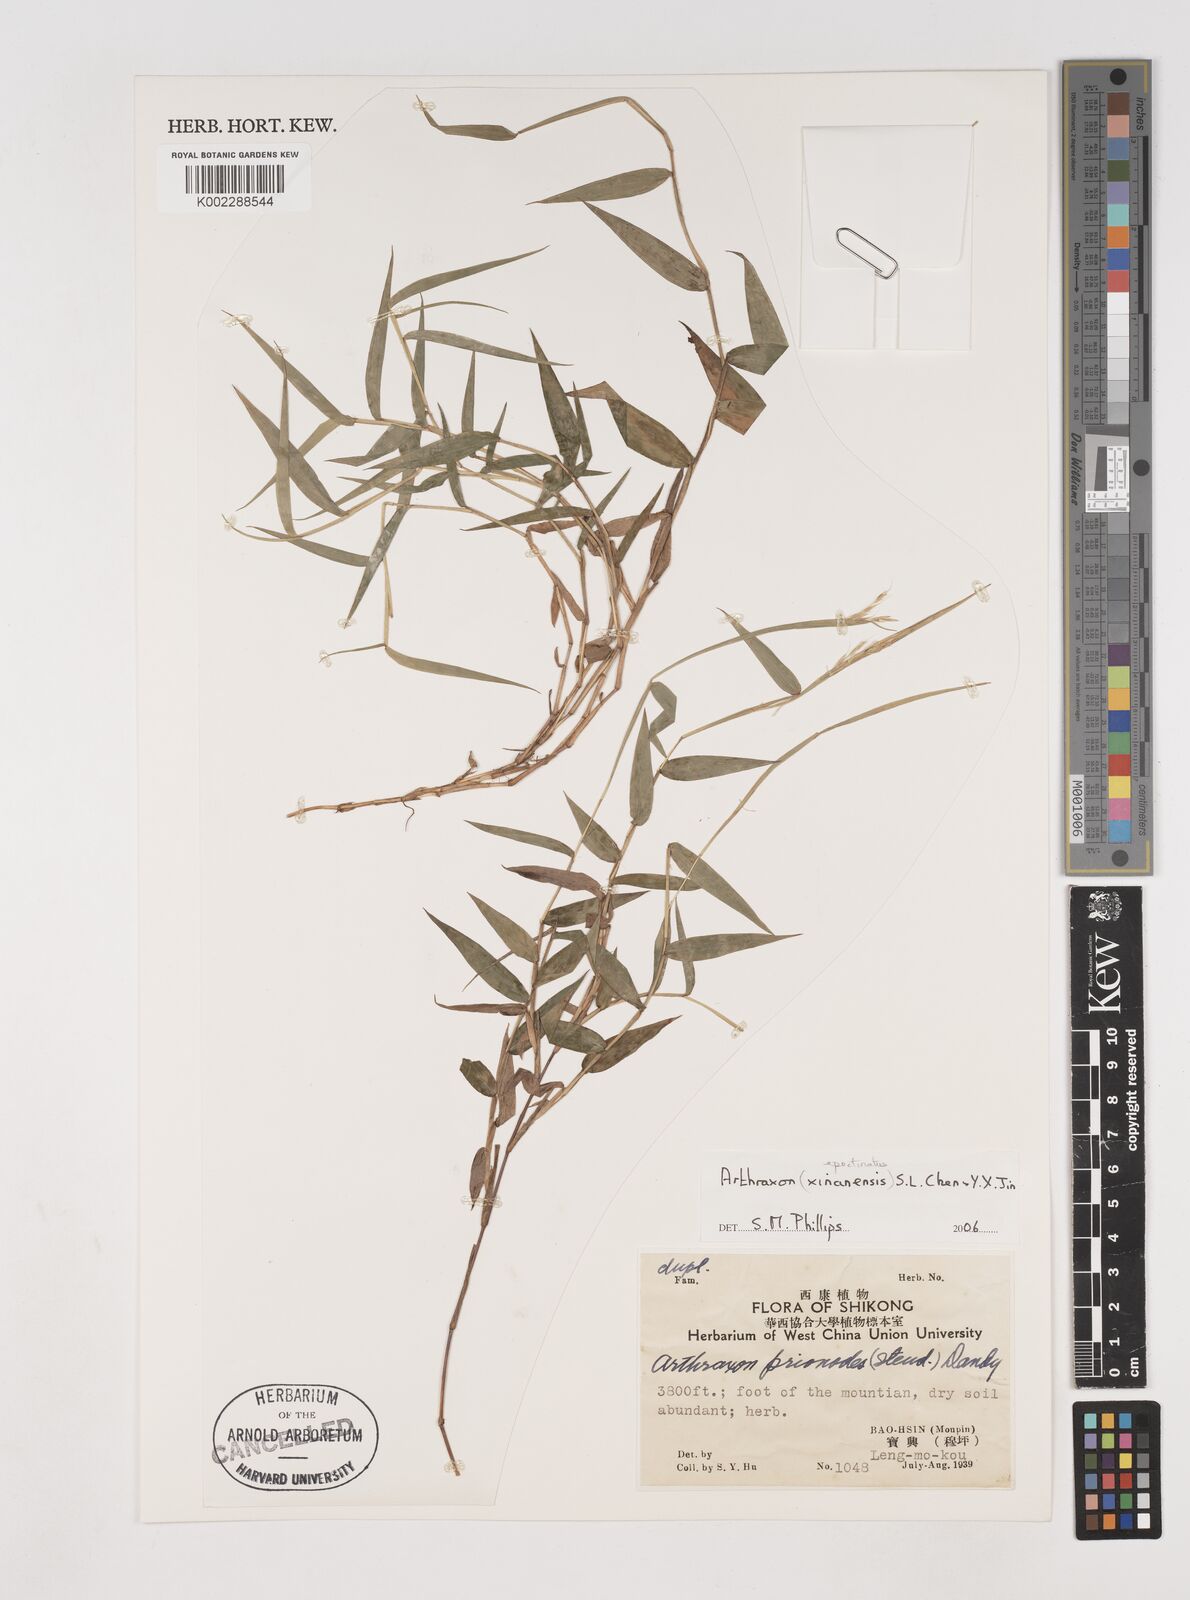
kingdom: Plantae
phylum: Tracheophyta
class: Liliopsida
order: Poales
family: Poaceae
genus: Arthraxon
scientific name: Arthraxon epectinatus
